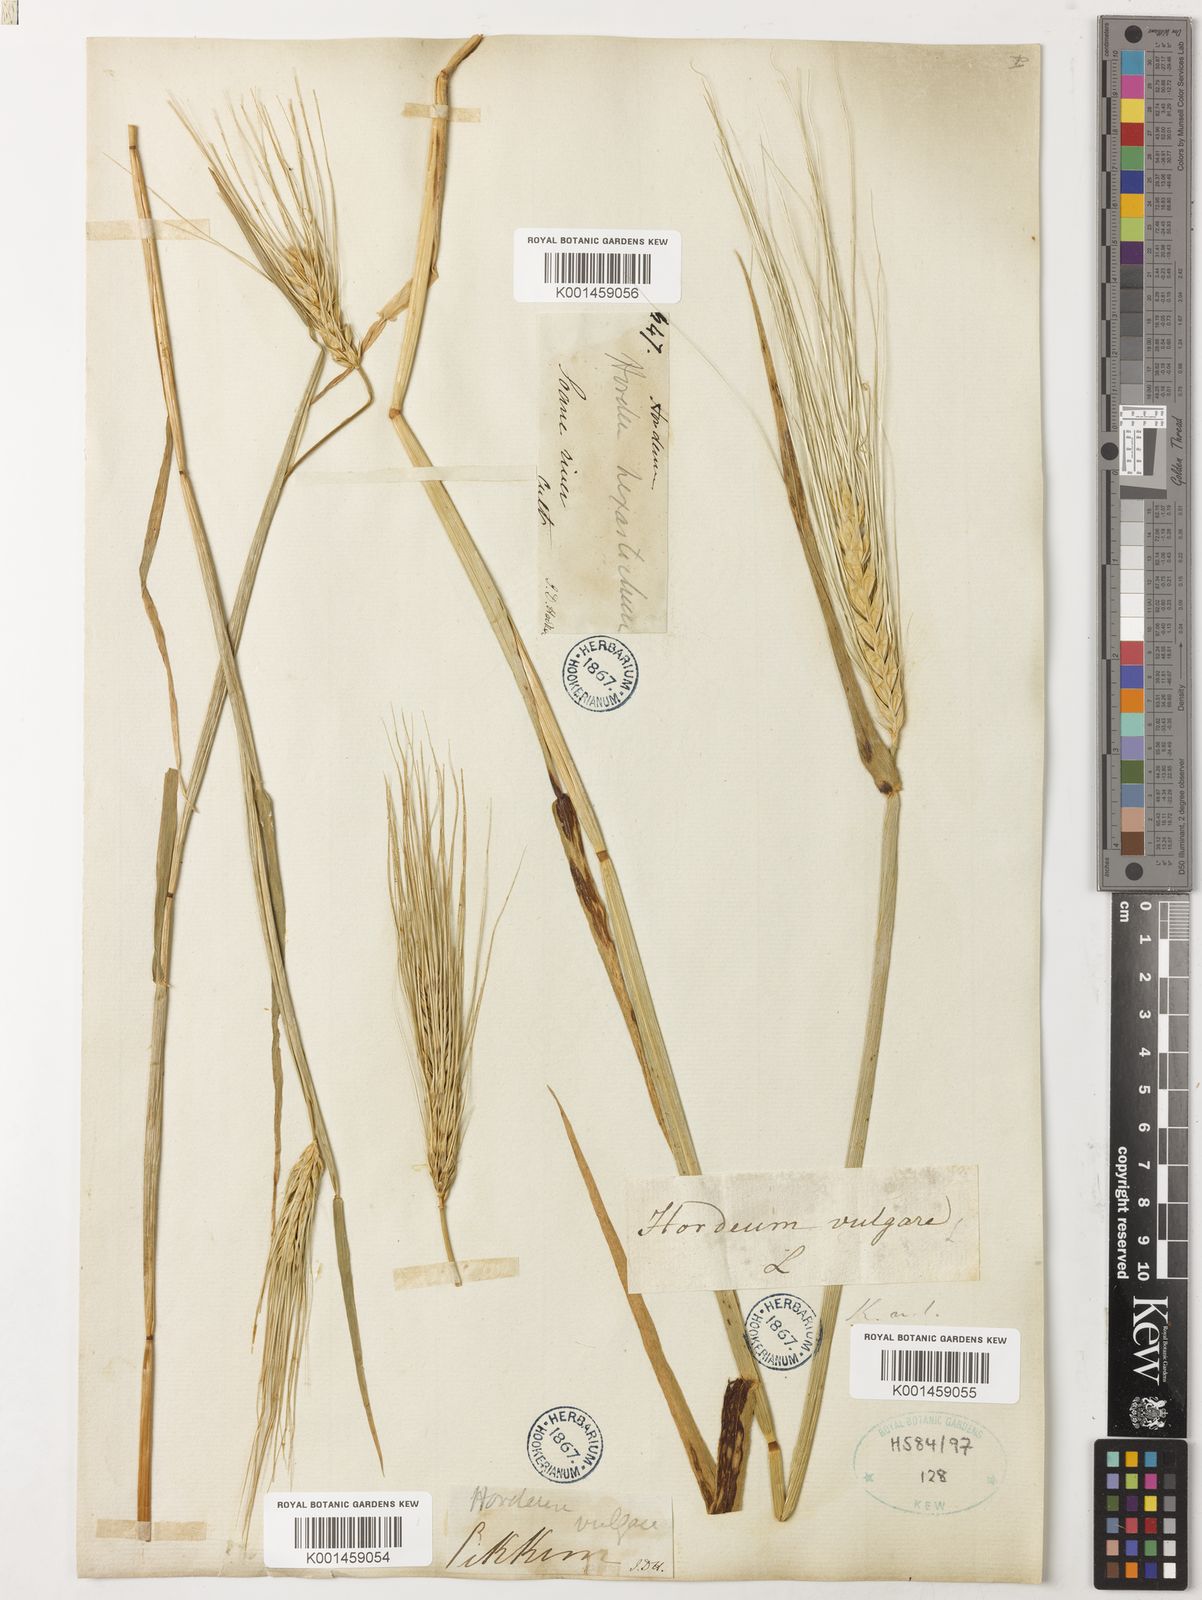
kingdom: Plantae
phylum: Tracheophyta
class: Liliopsida
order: Poales
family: Poaceae
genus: Hordeum
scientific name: Hordeum vulgare
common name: Common barley
